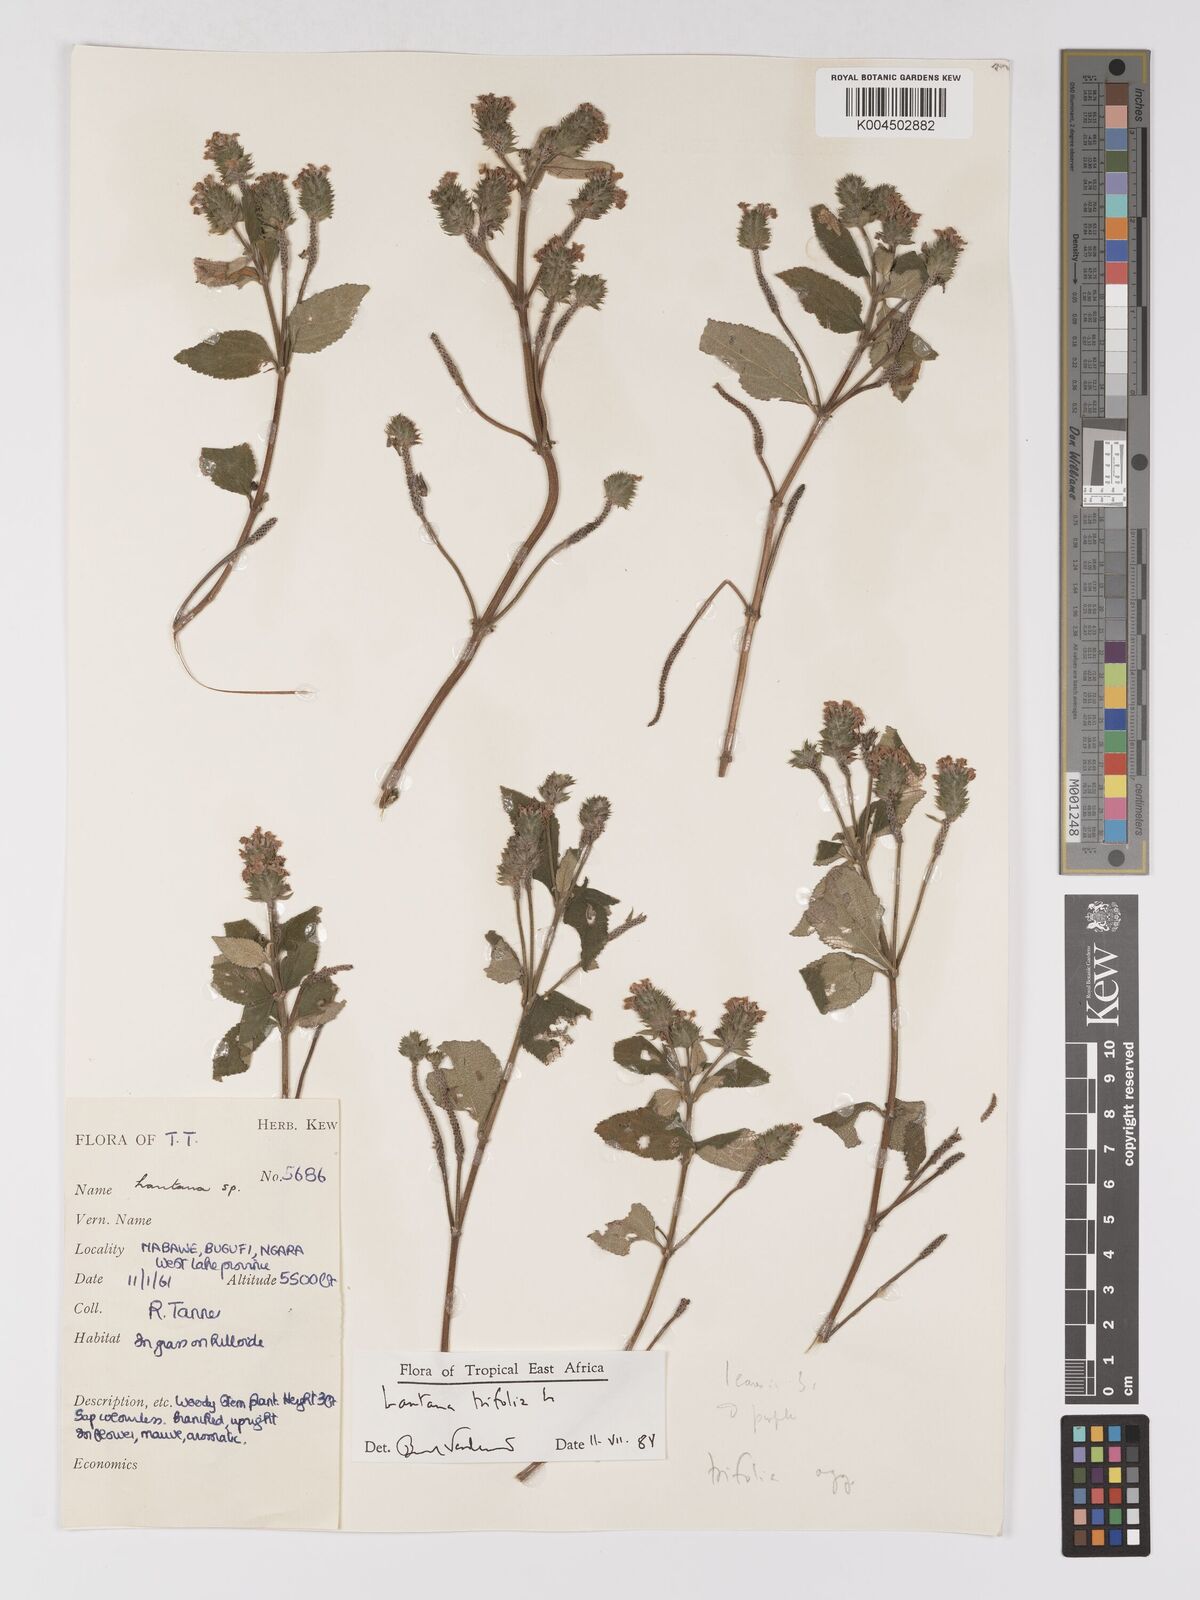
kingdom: Plantae
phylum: Tracheophyta
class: Magnoliopsida
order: Lamiales
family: Verbenaceae
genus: Lantana
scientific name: Lantana trifolia
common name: Sweet-sage
